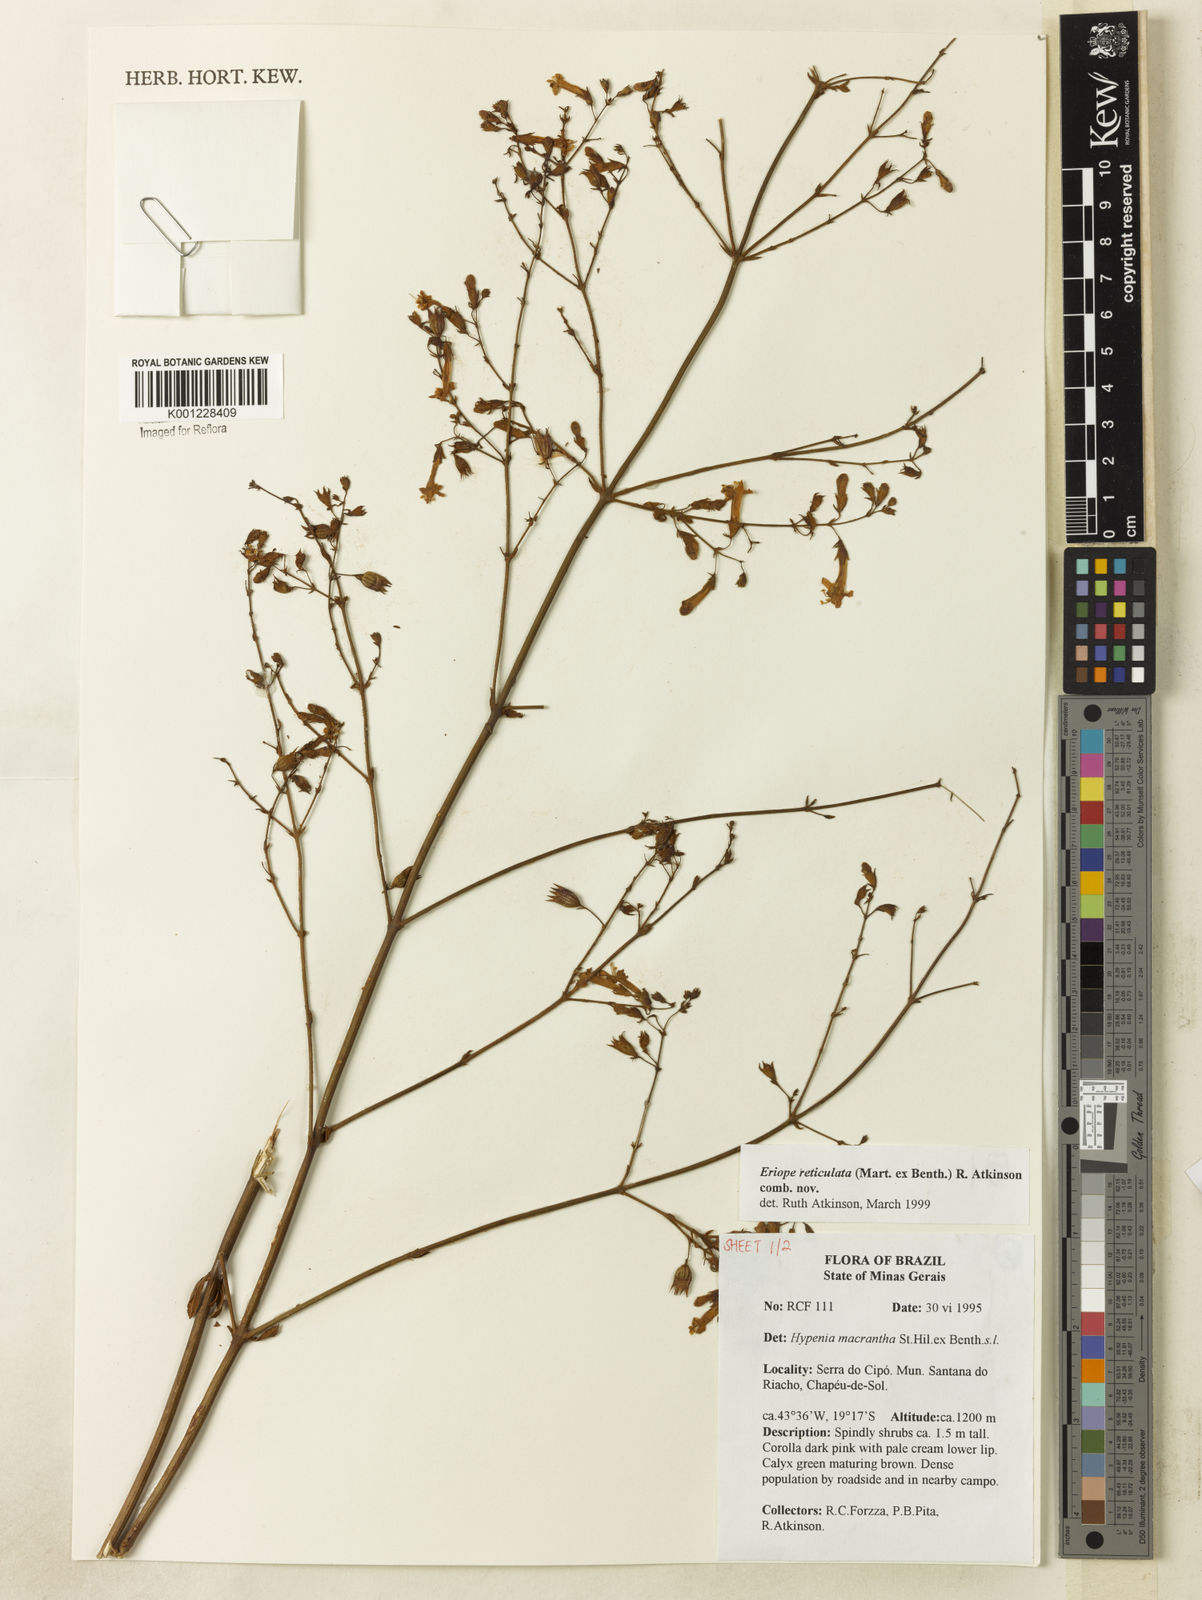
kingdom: Plantae
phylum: Tracheophyta
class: Magnoliopsida
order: Lamiales
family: Lamiaceae
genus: Hypenia
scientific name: Hypenia reticulata
